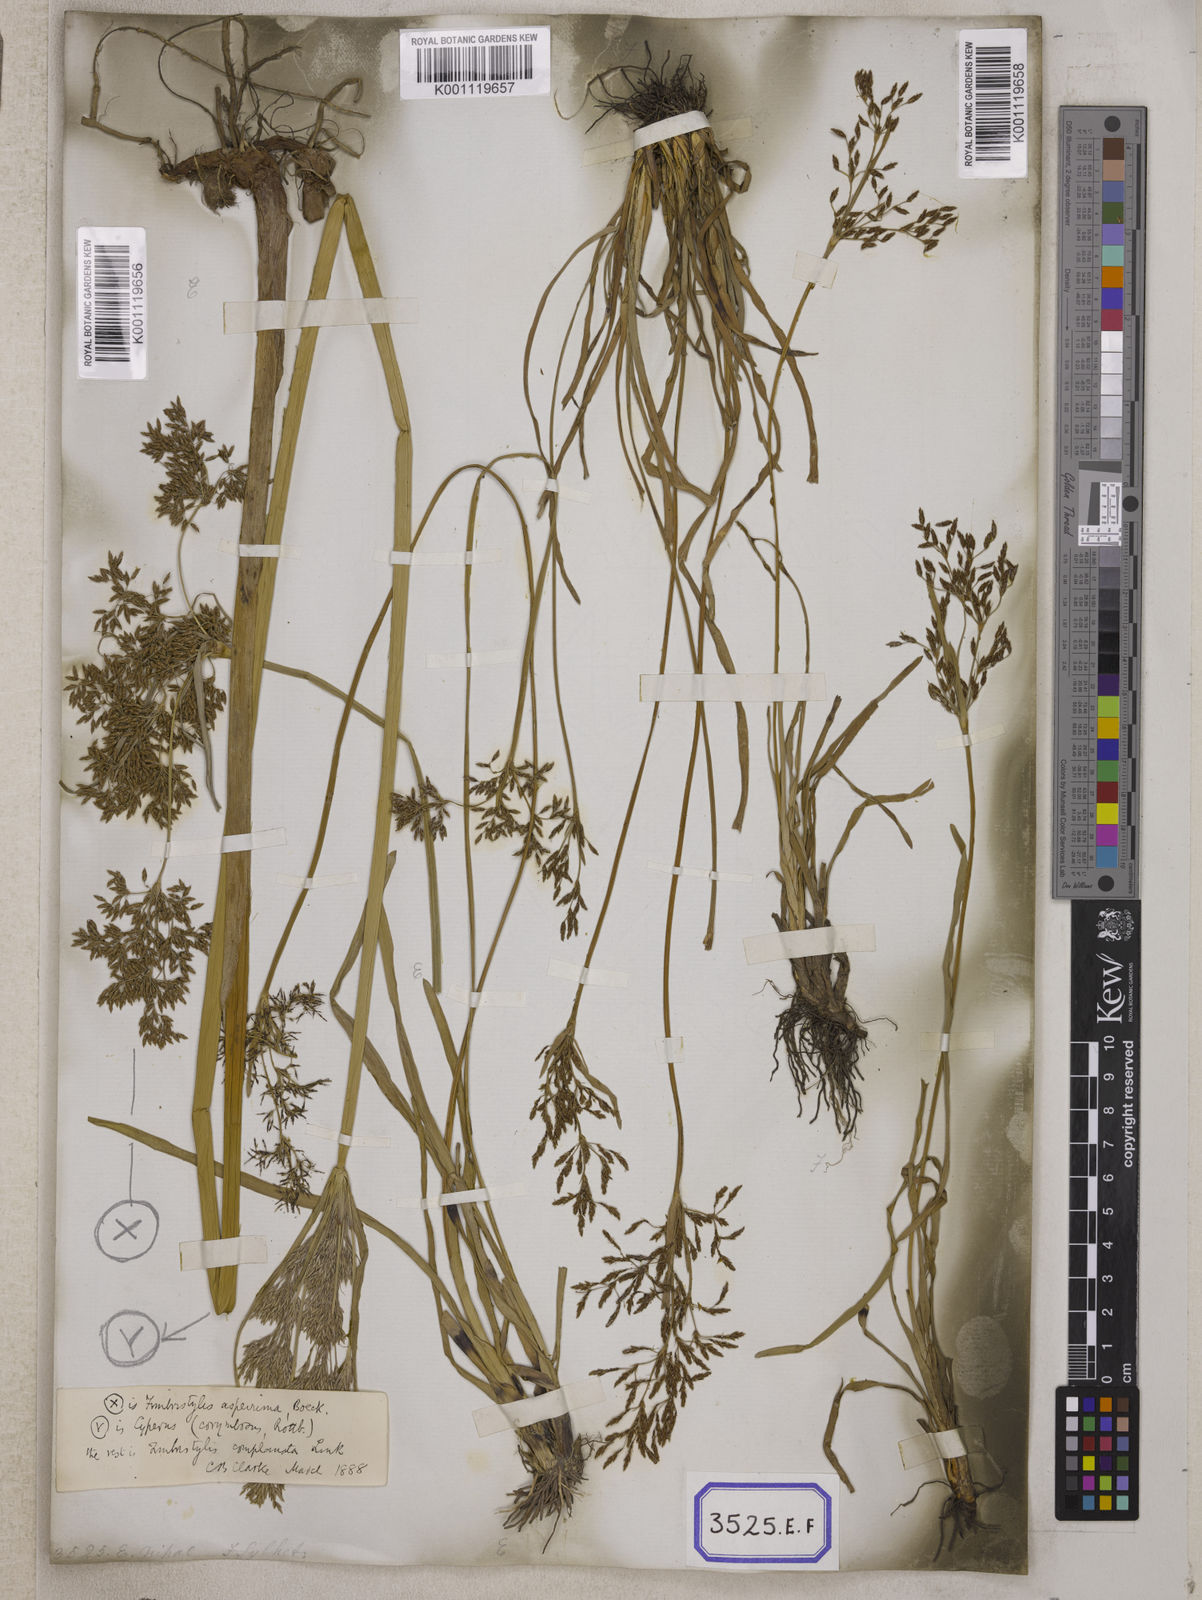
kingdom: Plantae
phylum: Tracheophyta
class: Liliopsida
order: Poales
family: Cyperaceae
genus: Fimbristylis
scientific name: Fimbristylis
